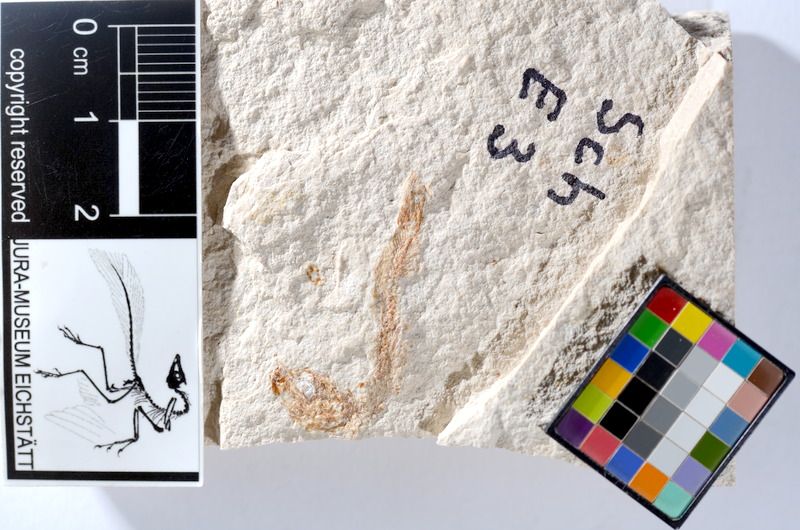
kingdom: Animalia
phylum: Chordata
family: Ascalaboidae
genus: Tharsis
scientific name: Tharsis dubius
